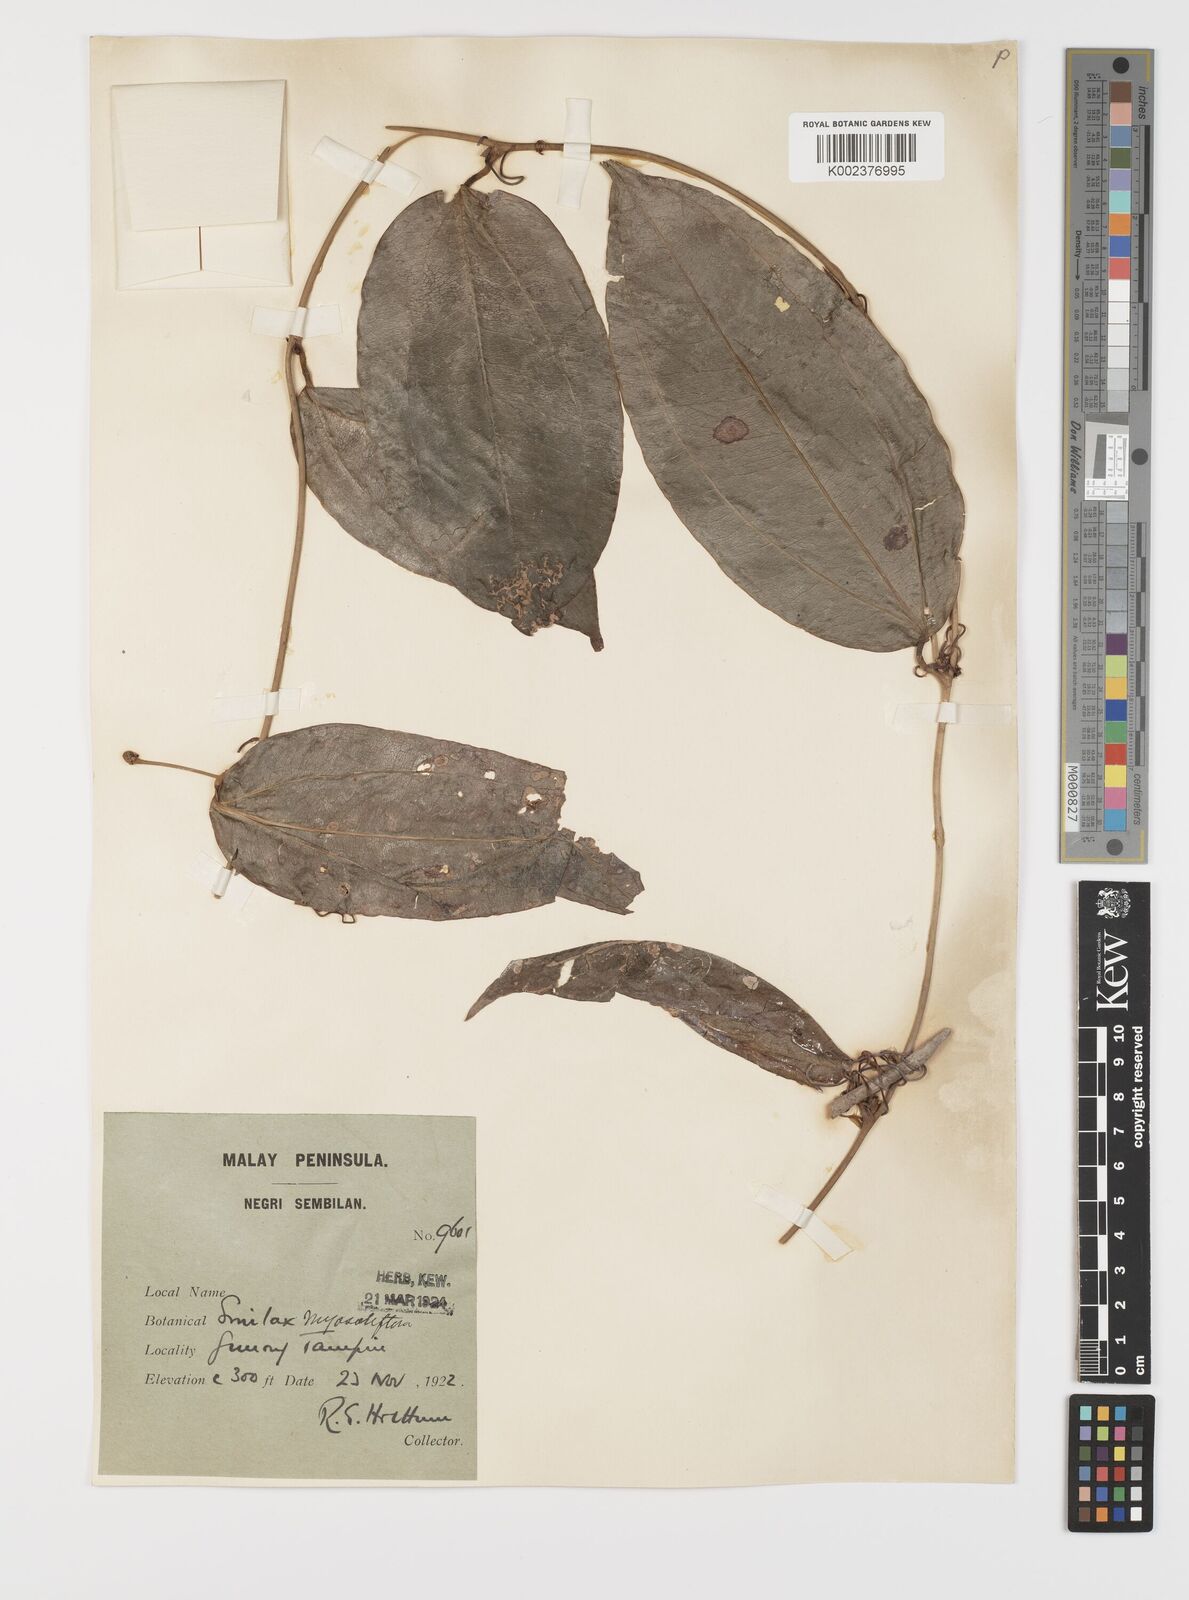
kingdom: Plantae
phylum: Tracheophyta
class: Liliopsida
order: Liliales
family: Smilacaceae
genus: Smilax
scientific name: Smilax myosotiflora
